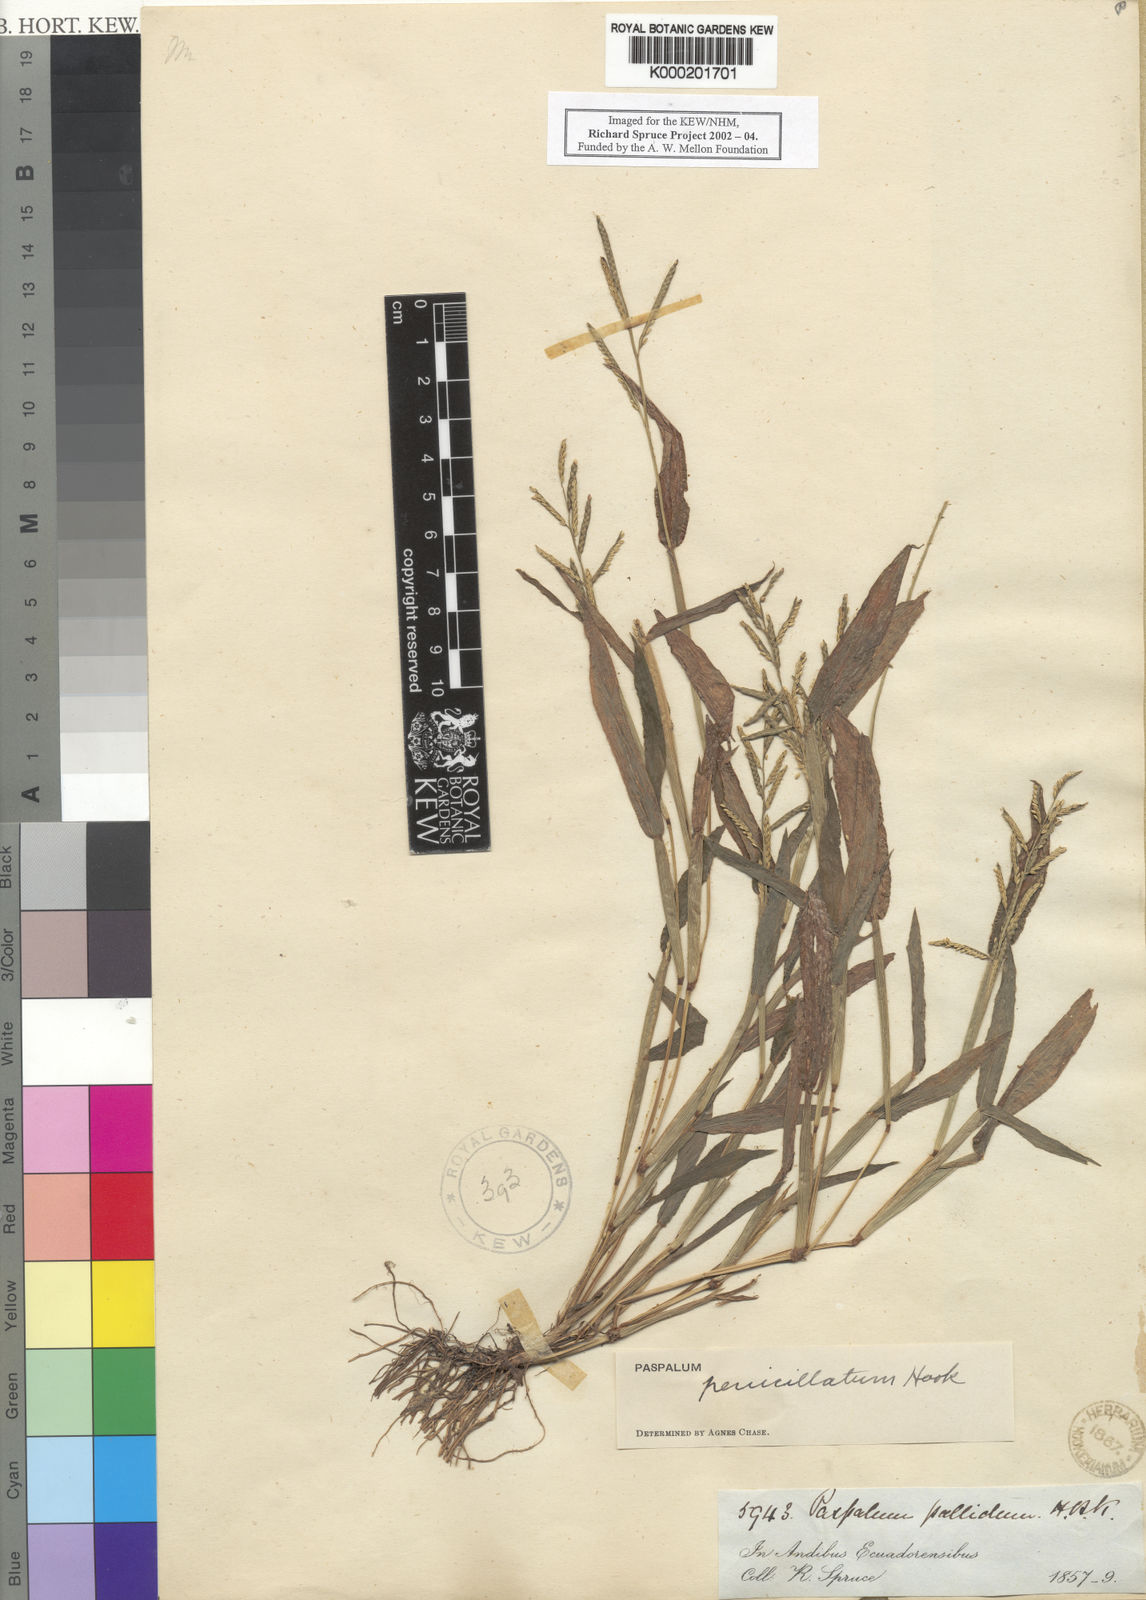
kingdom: Plantae
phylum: Tracheophyta
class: Liliopsida
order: Poales
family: Poaceae
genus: Paspalum
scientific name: Paspalum pallidum
